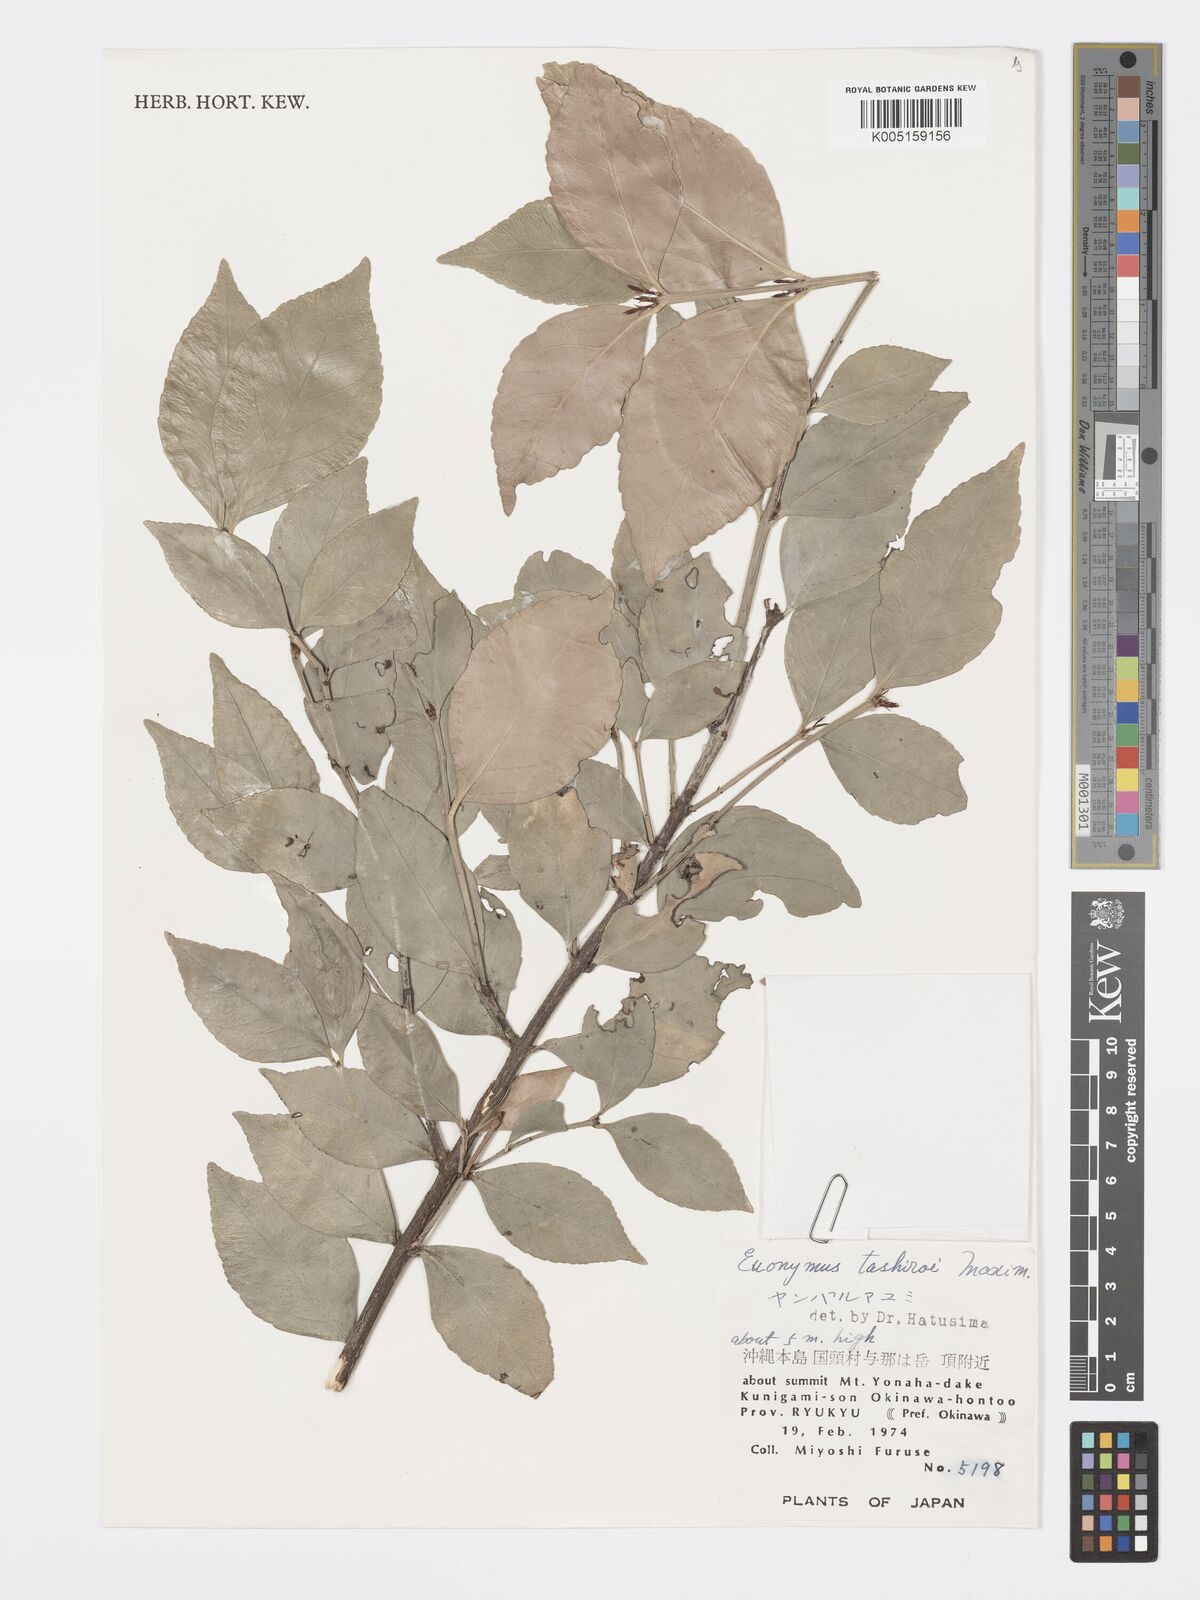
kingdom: Plantae
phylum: Tracheophyta
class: Magnoliopsida
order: Celastrales
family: Celastraceae
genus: Euonymus
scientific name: Euonymus tashiroi
